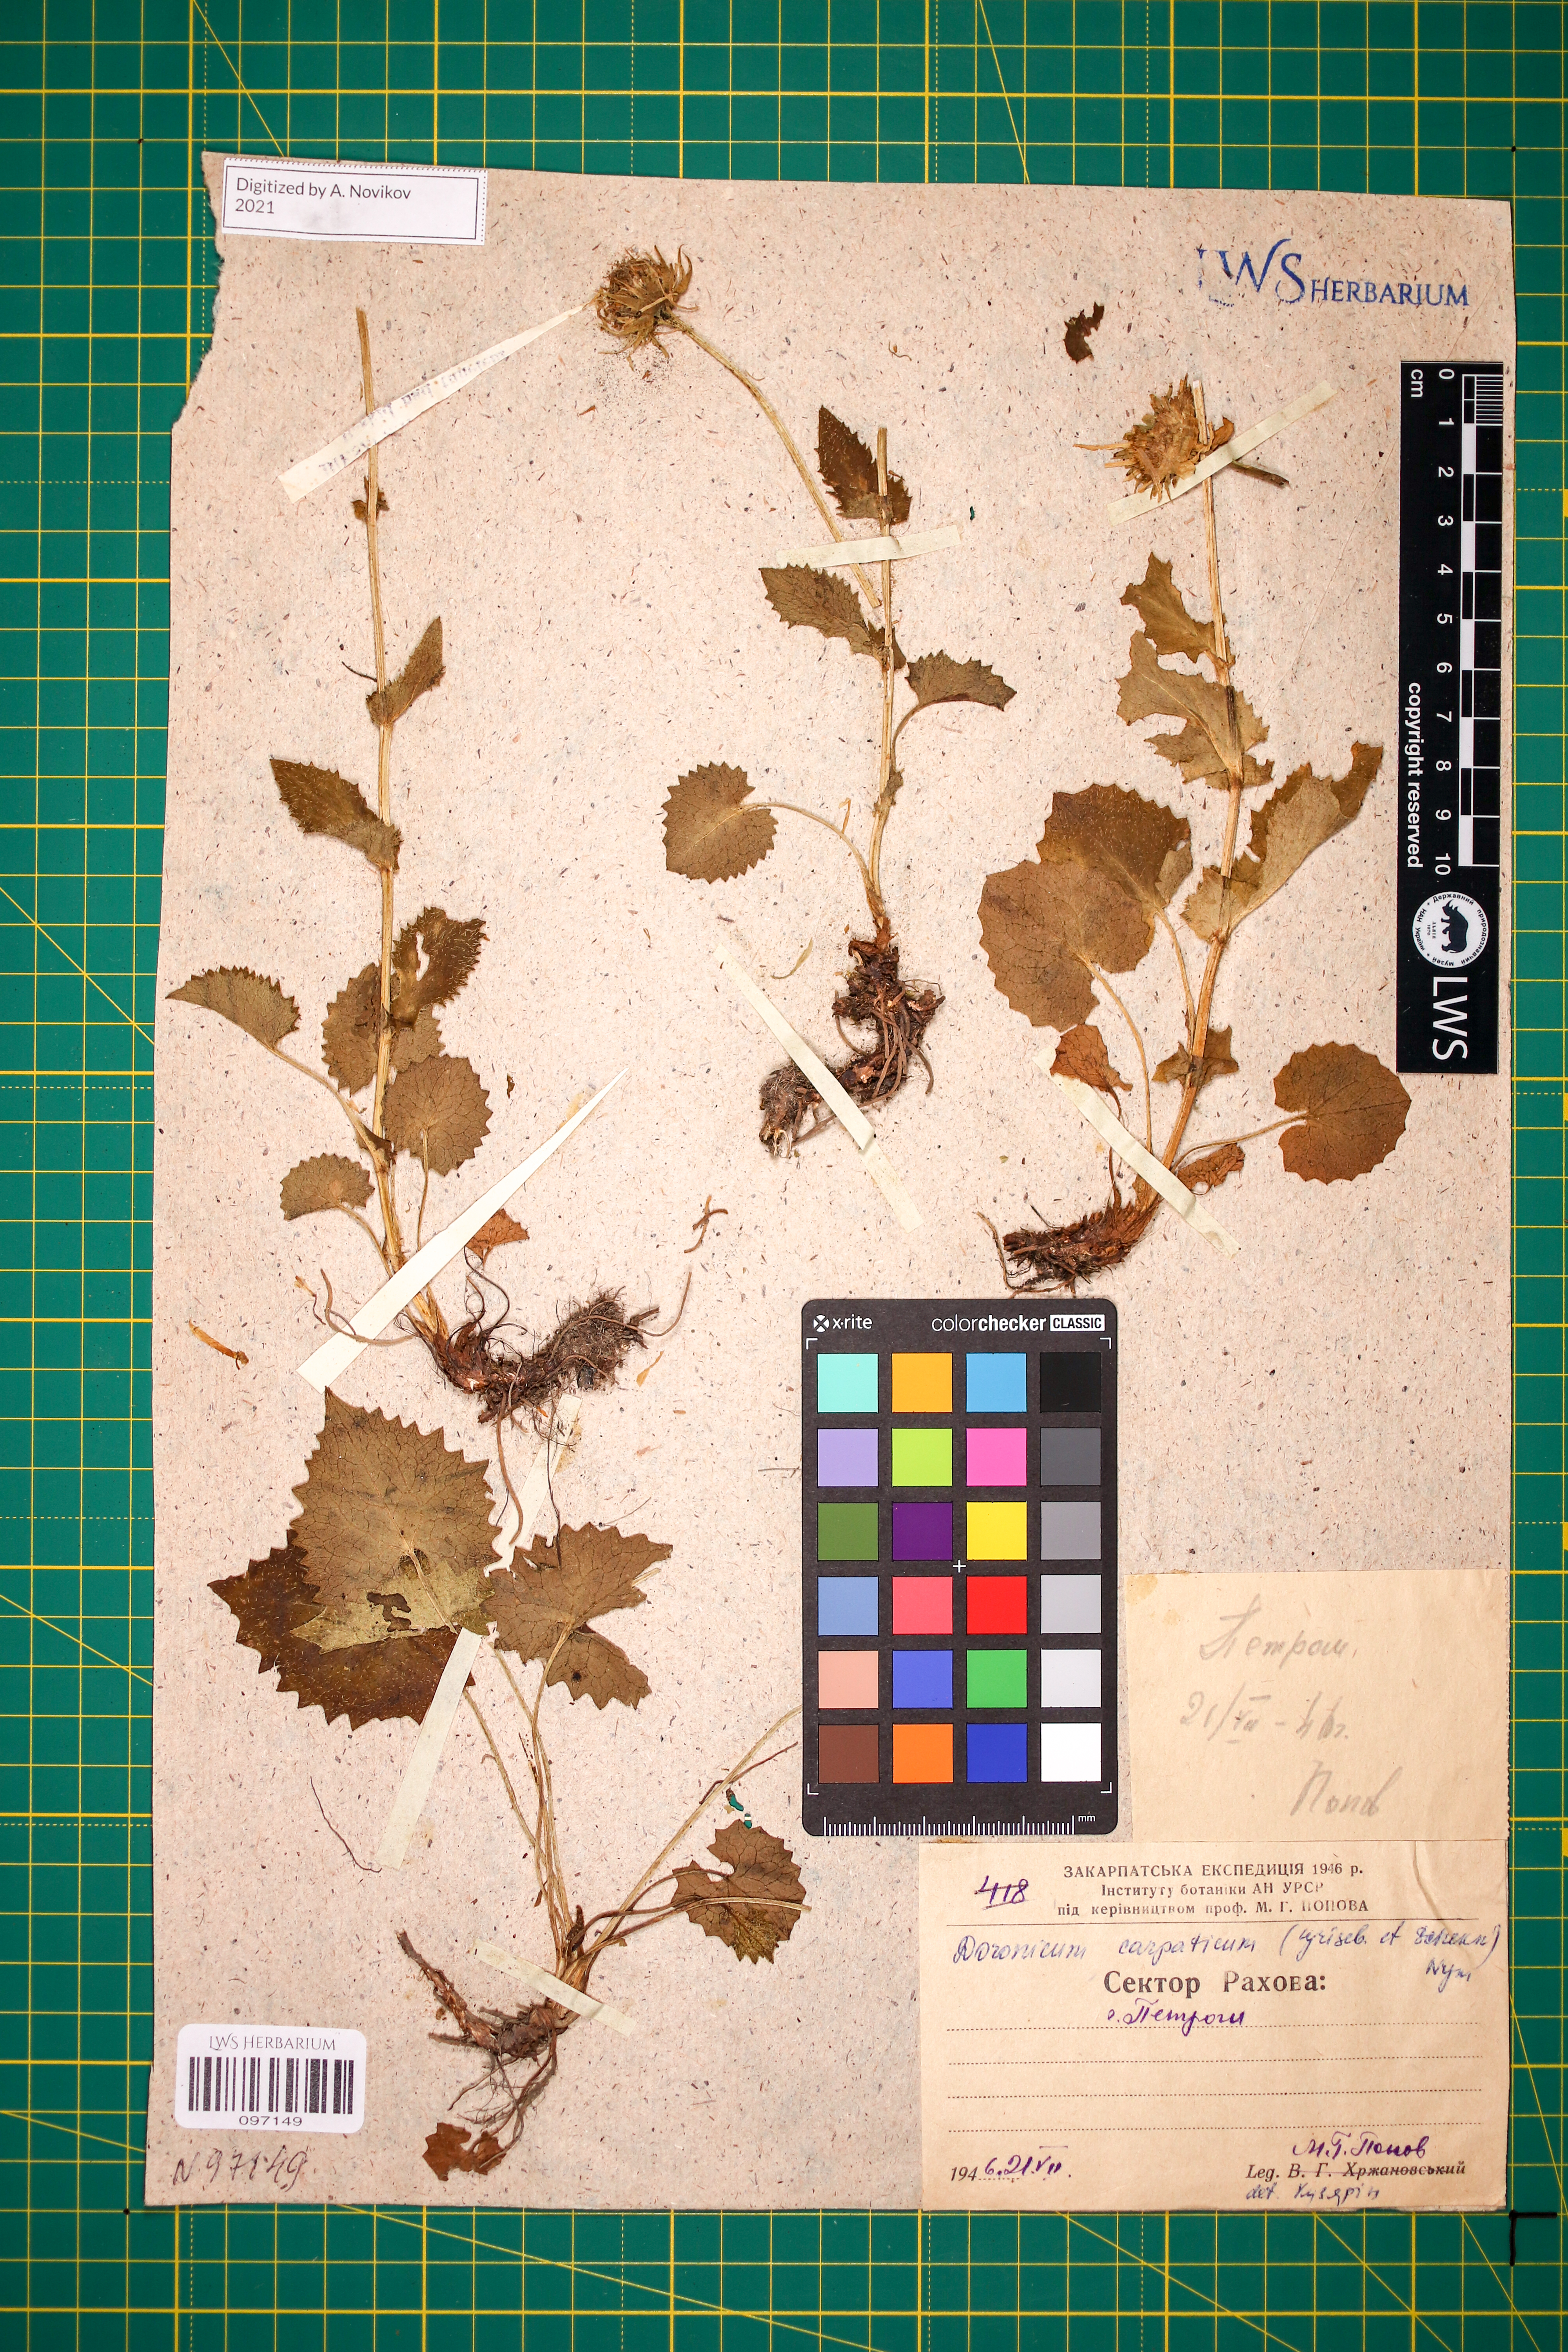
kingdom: Plantae
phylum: Tracheophyta
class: Magnoliopsida
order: Asterales
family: Asteraceae
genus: Doronicum
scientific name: Doronicum carpaticum
